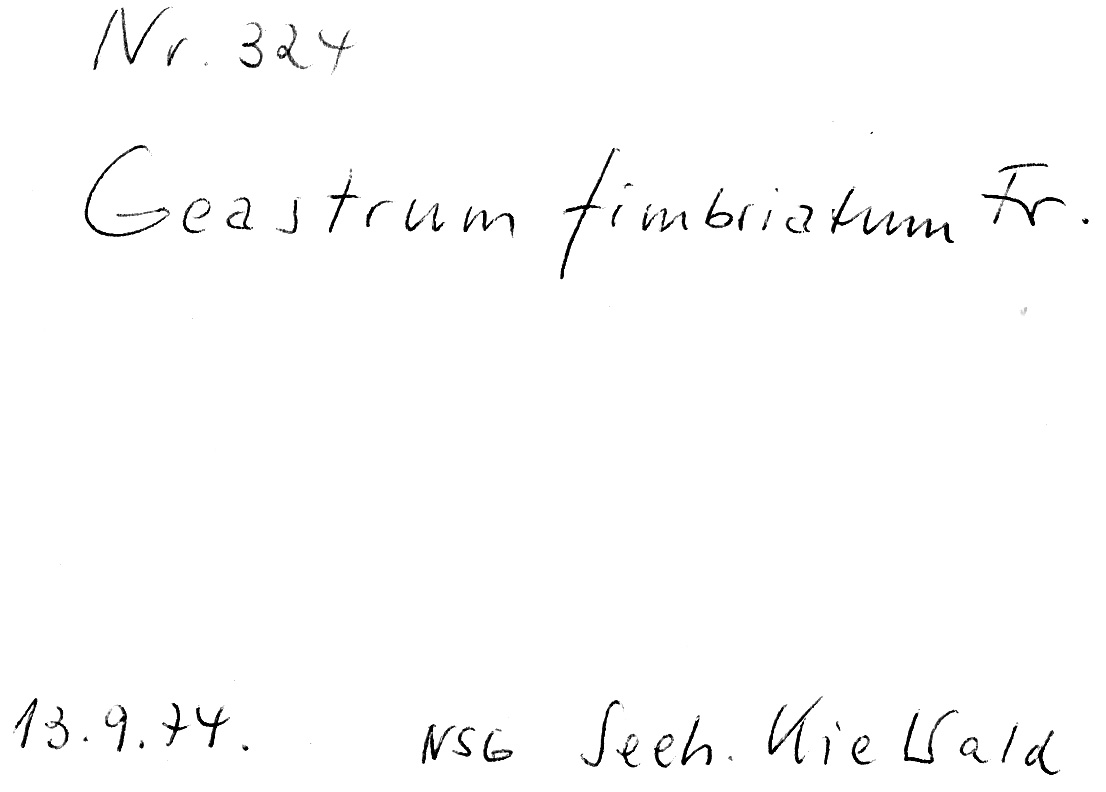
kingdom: Fungi
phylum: Basidiomycota
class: Agaricomycetes
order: Geastrales
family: Geastraceae
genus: Geastrum
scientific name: Geastrum fimbriatum
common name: Sessile earthstar
